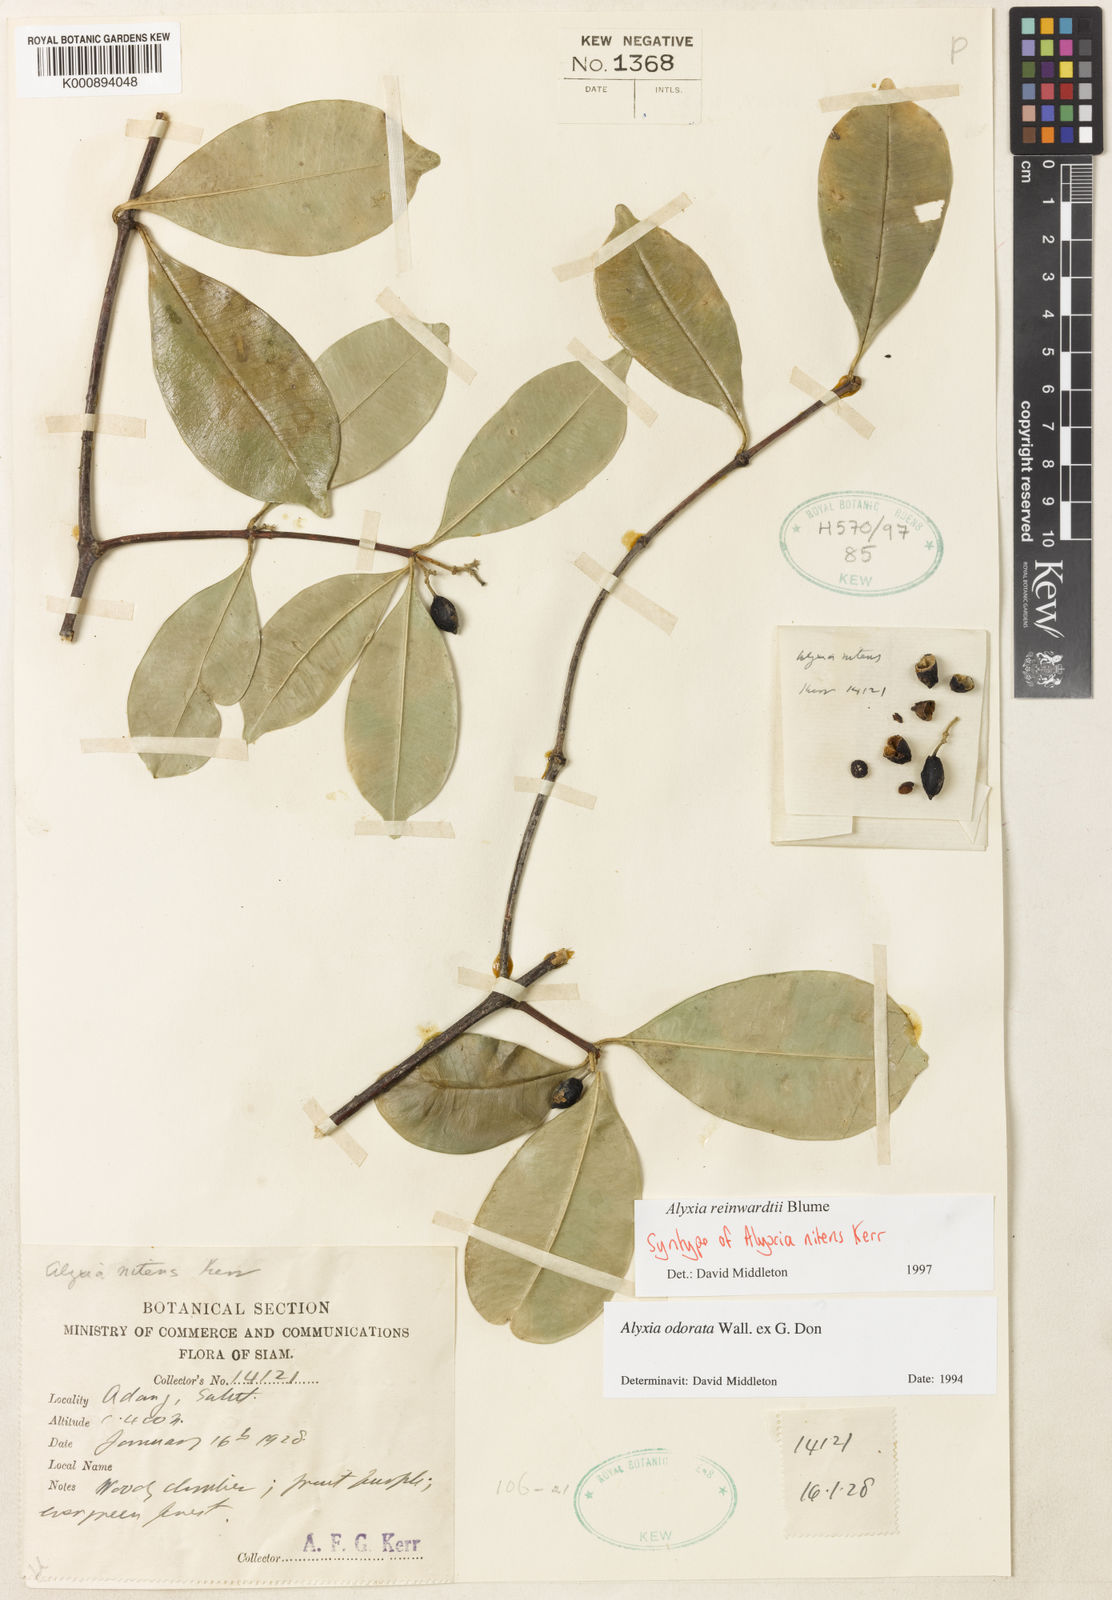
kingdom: Plantae
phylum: Tracheophyta
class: Magnoliopsida
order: Gentianales
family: Apocynaceae
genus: Alyxia
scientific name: Alyxia reinwardtii
